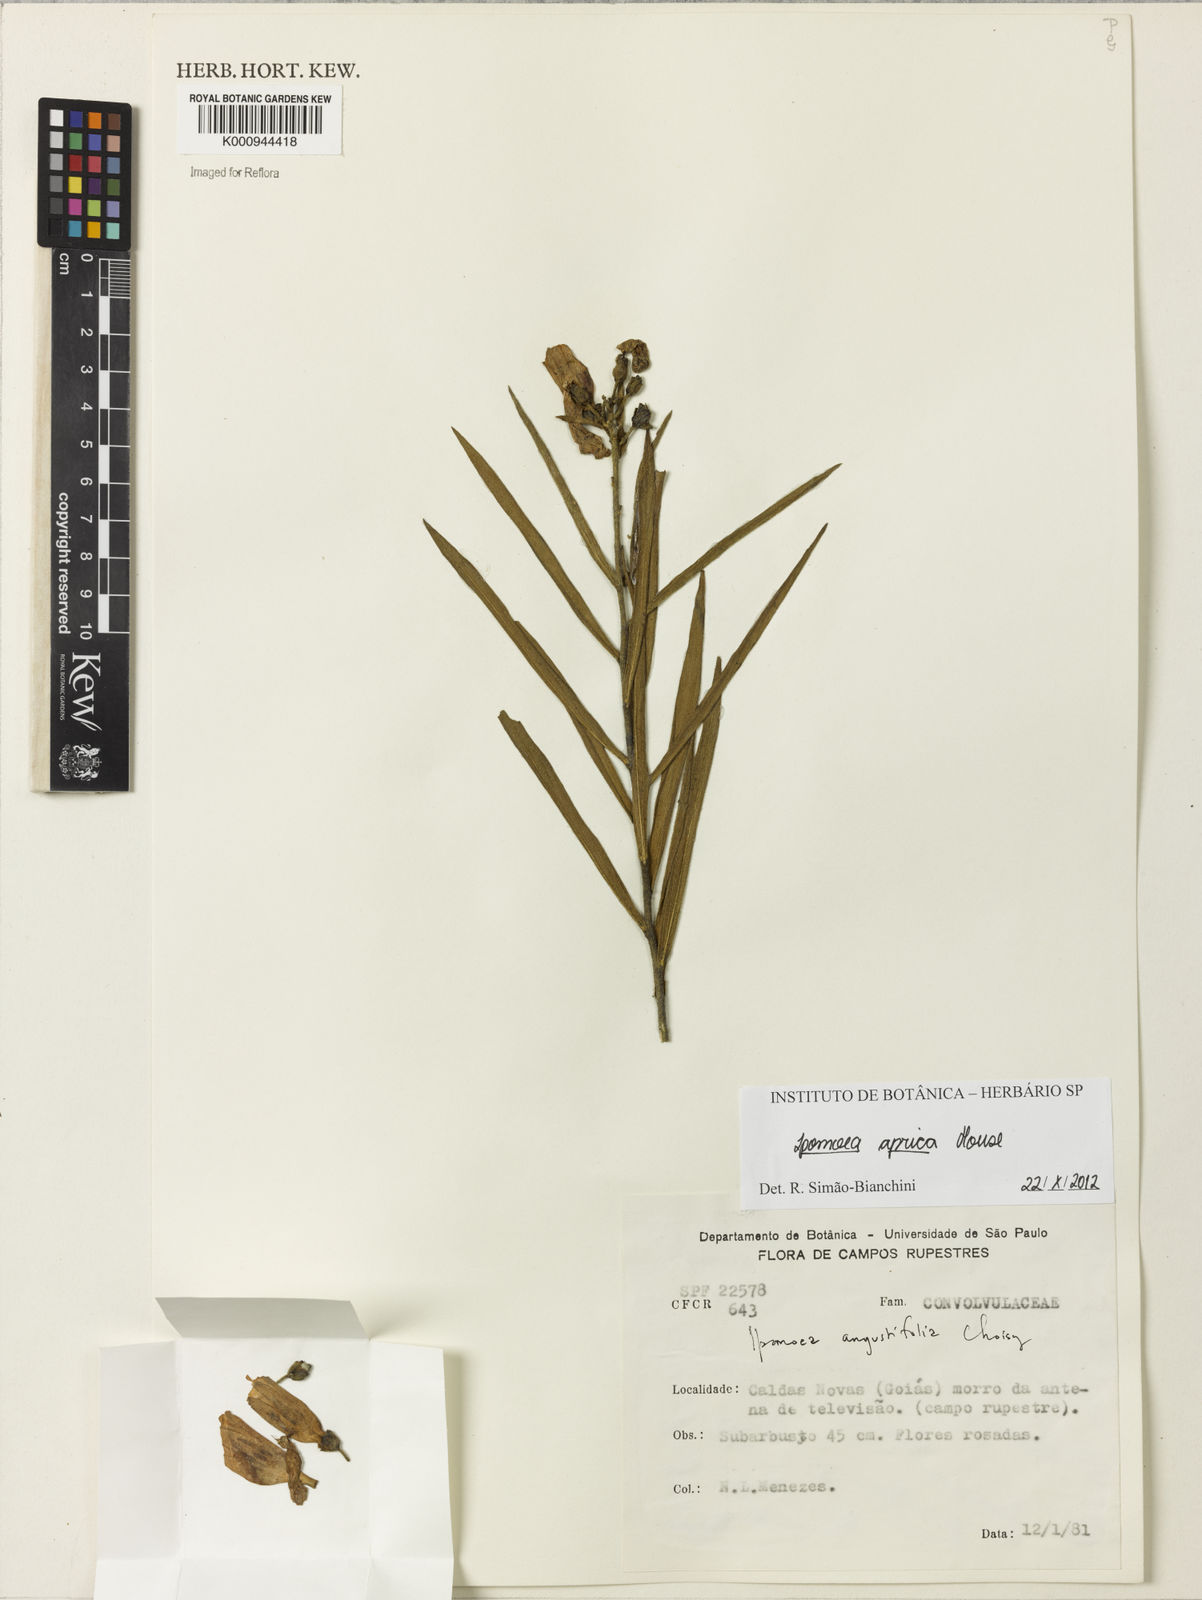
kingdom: Plantae
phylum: Tracheophyta
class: Magnoliopsida
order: Solanales
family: Convolvulaceae
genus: Ipomoea
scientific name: Ipomoea aprica
